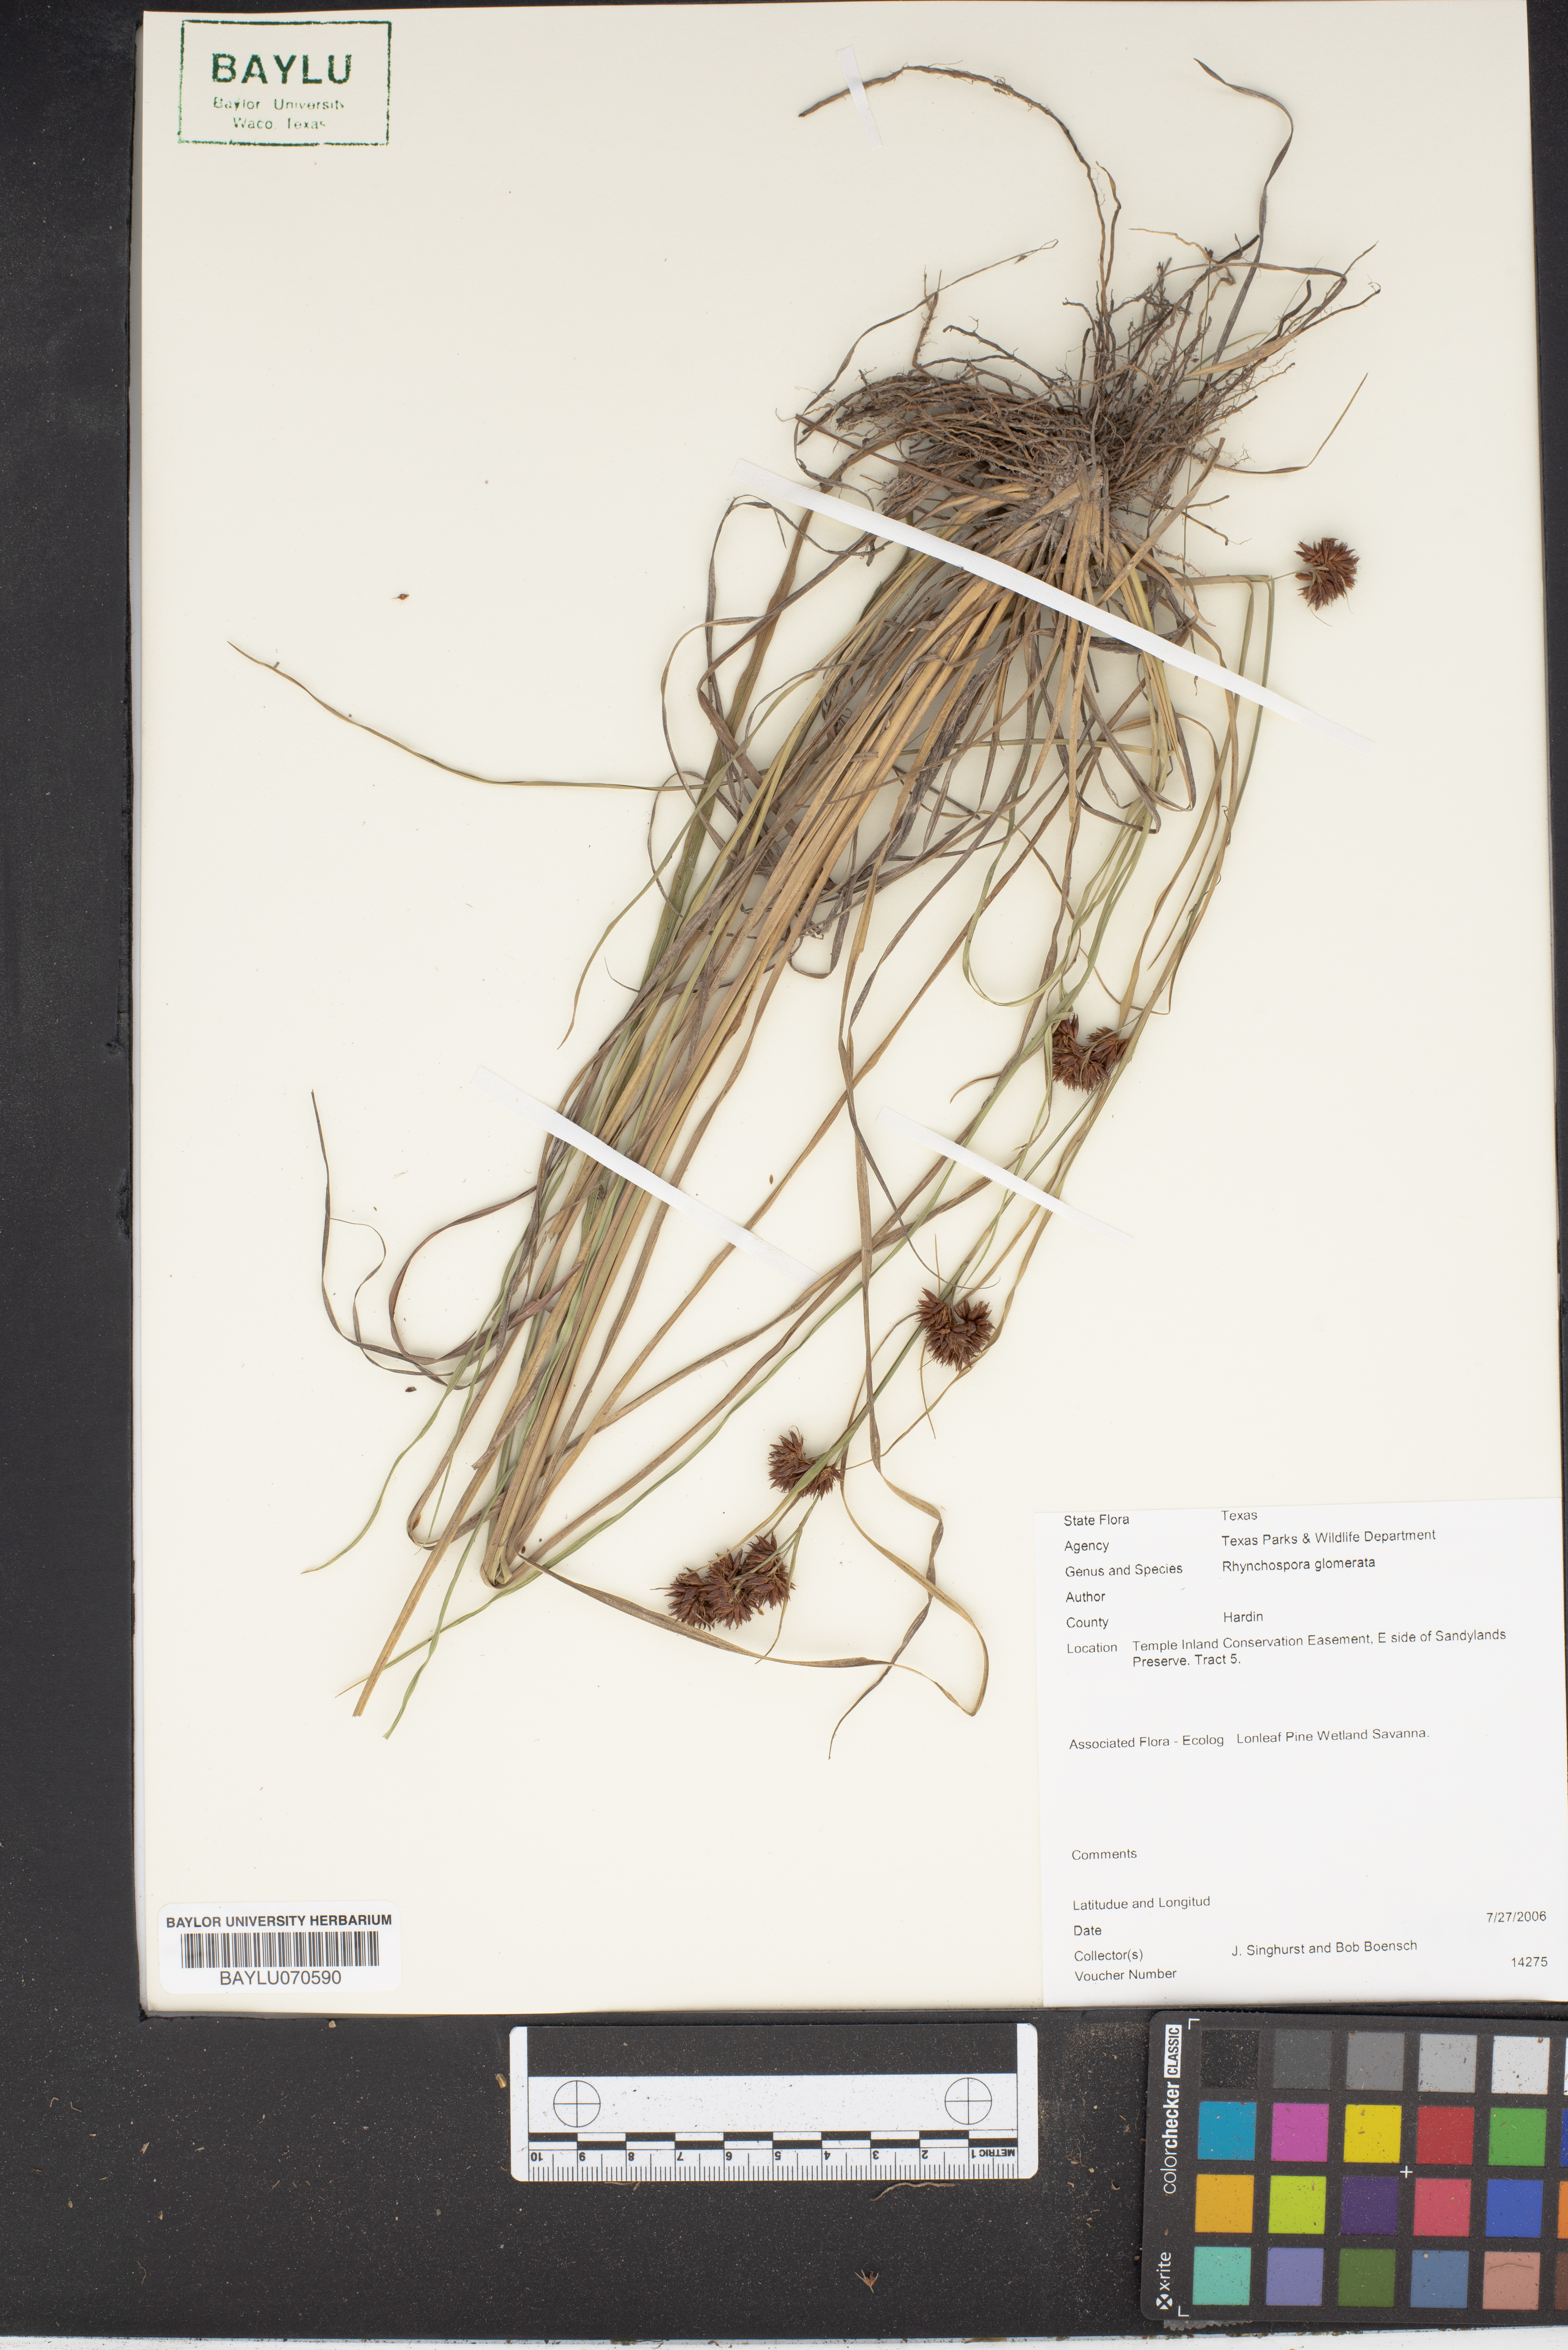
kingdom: Plantae
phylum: Tracheophyta
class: Liliopsida
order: Poales
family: Cyperaceae
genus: Rhynchospora
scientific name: Rhynchospora glomerata
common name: Cluster beak sedge
